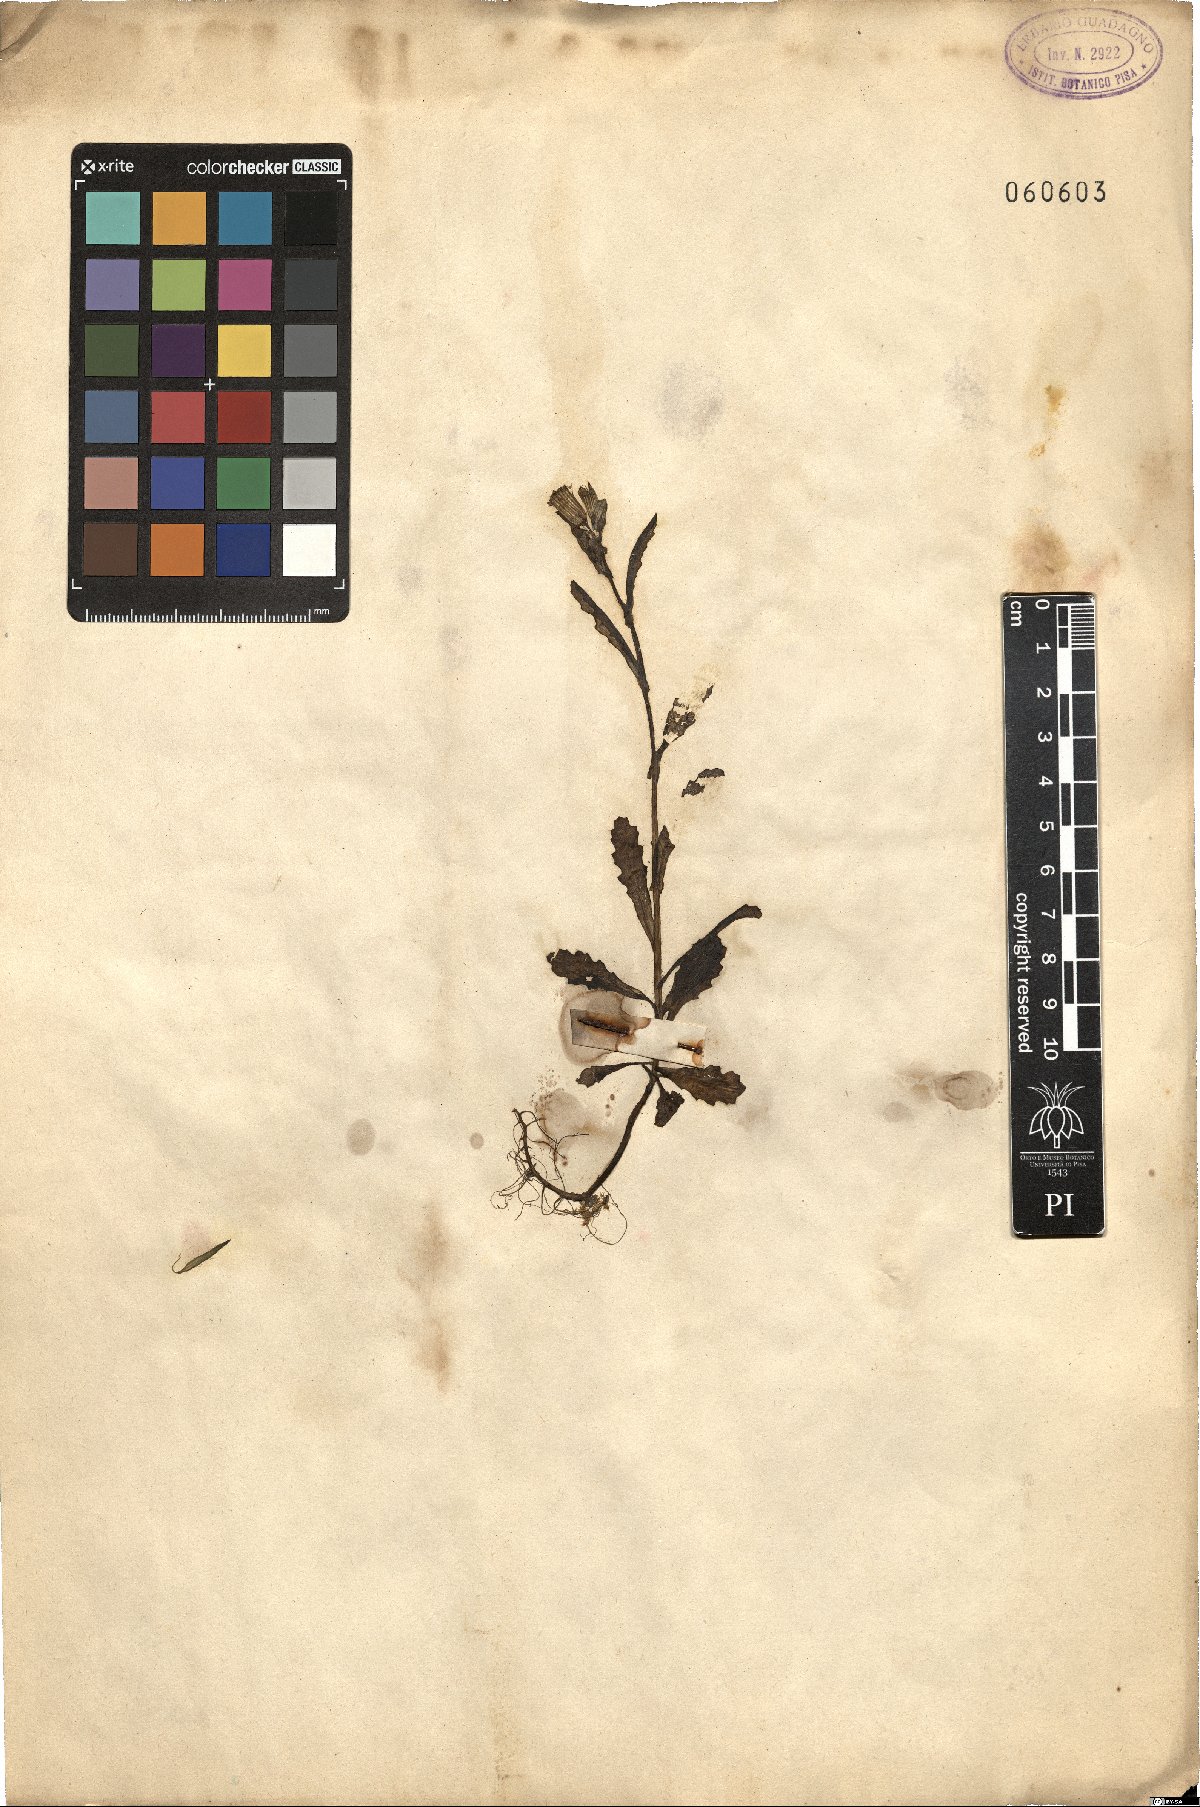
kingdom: Plantae
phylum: Tracheophyta
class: Magnoliopsida
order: Asterales
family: Asteraceae
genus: Senecio
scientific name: Senecio
